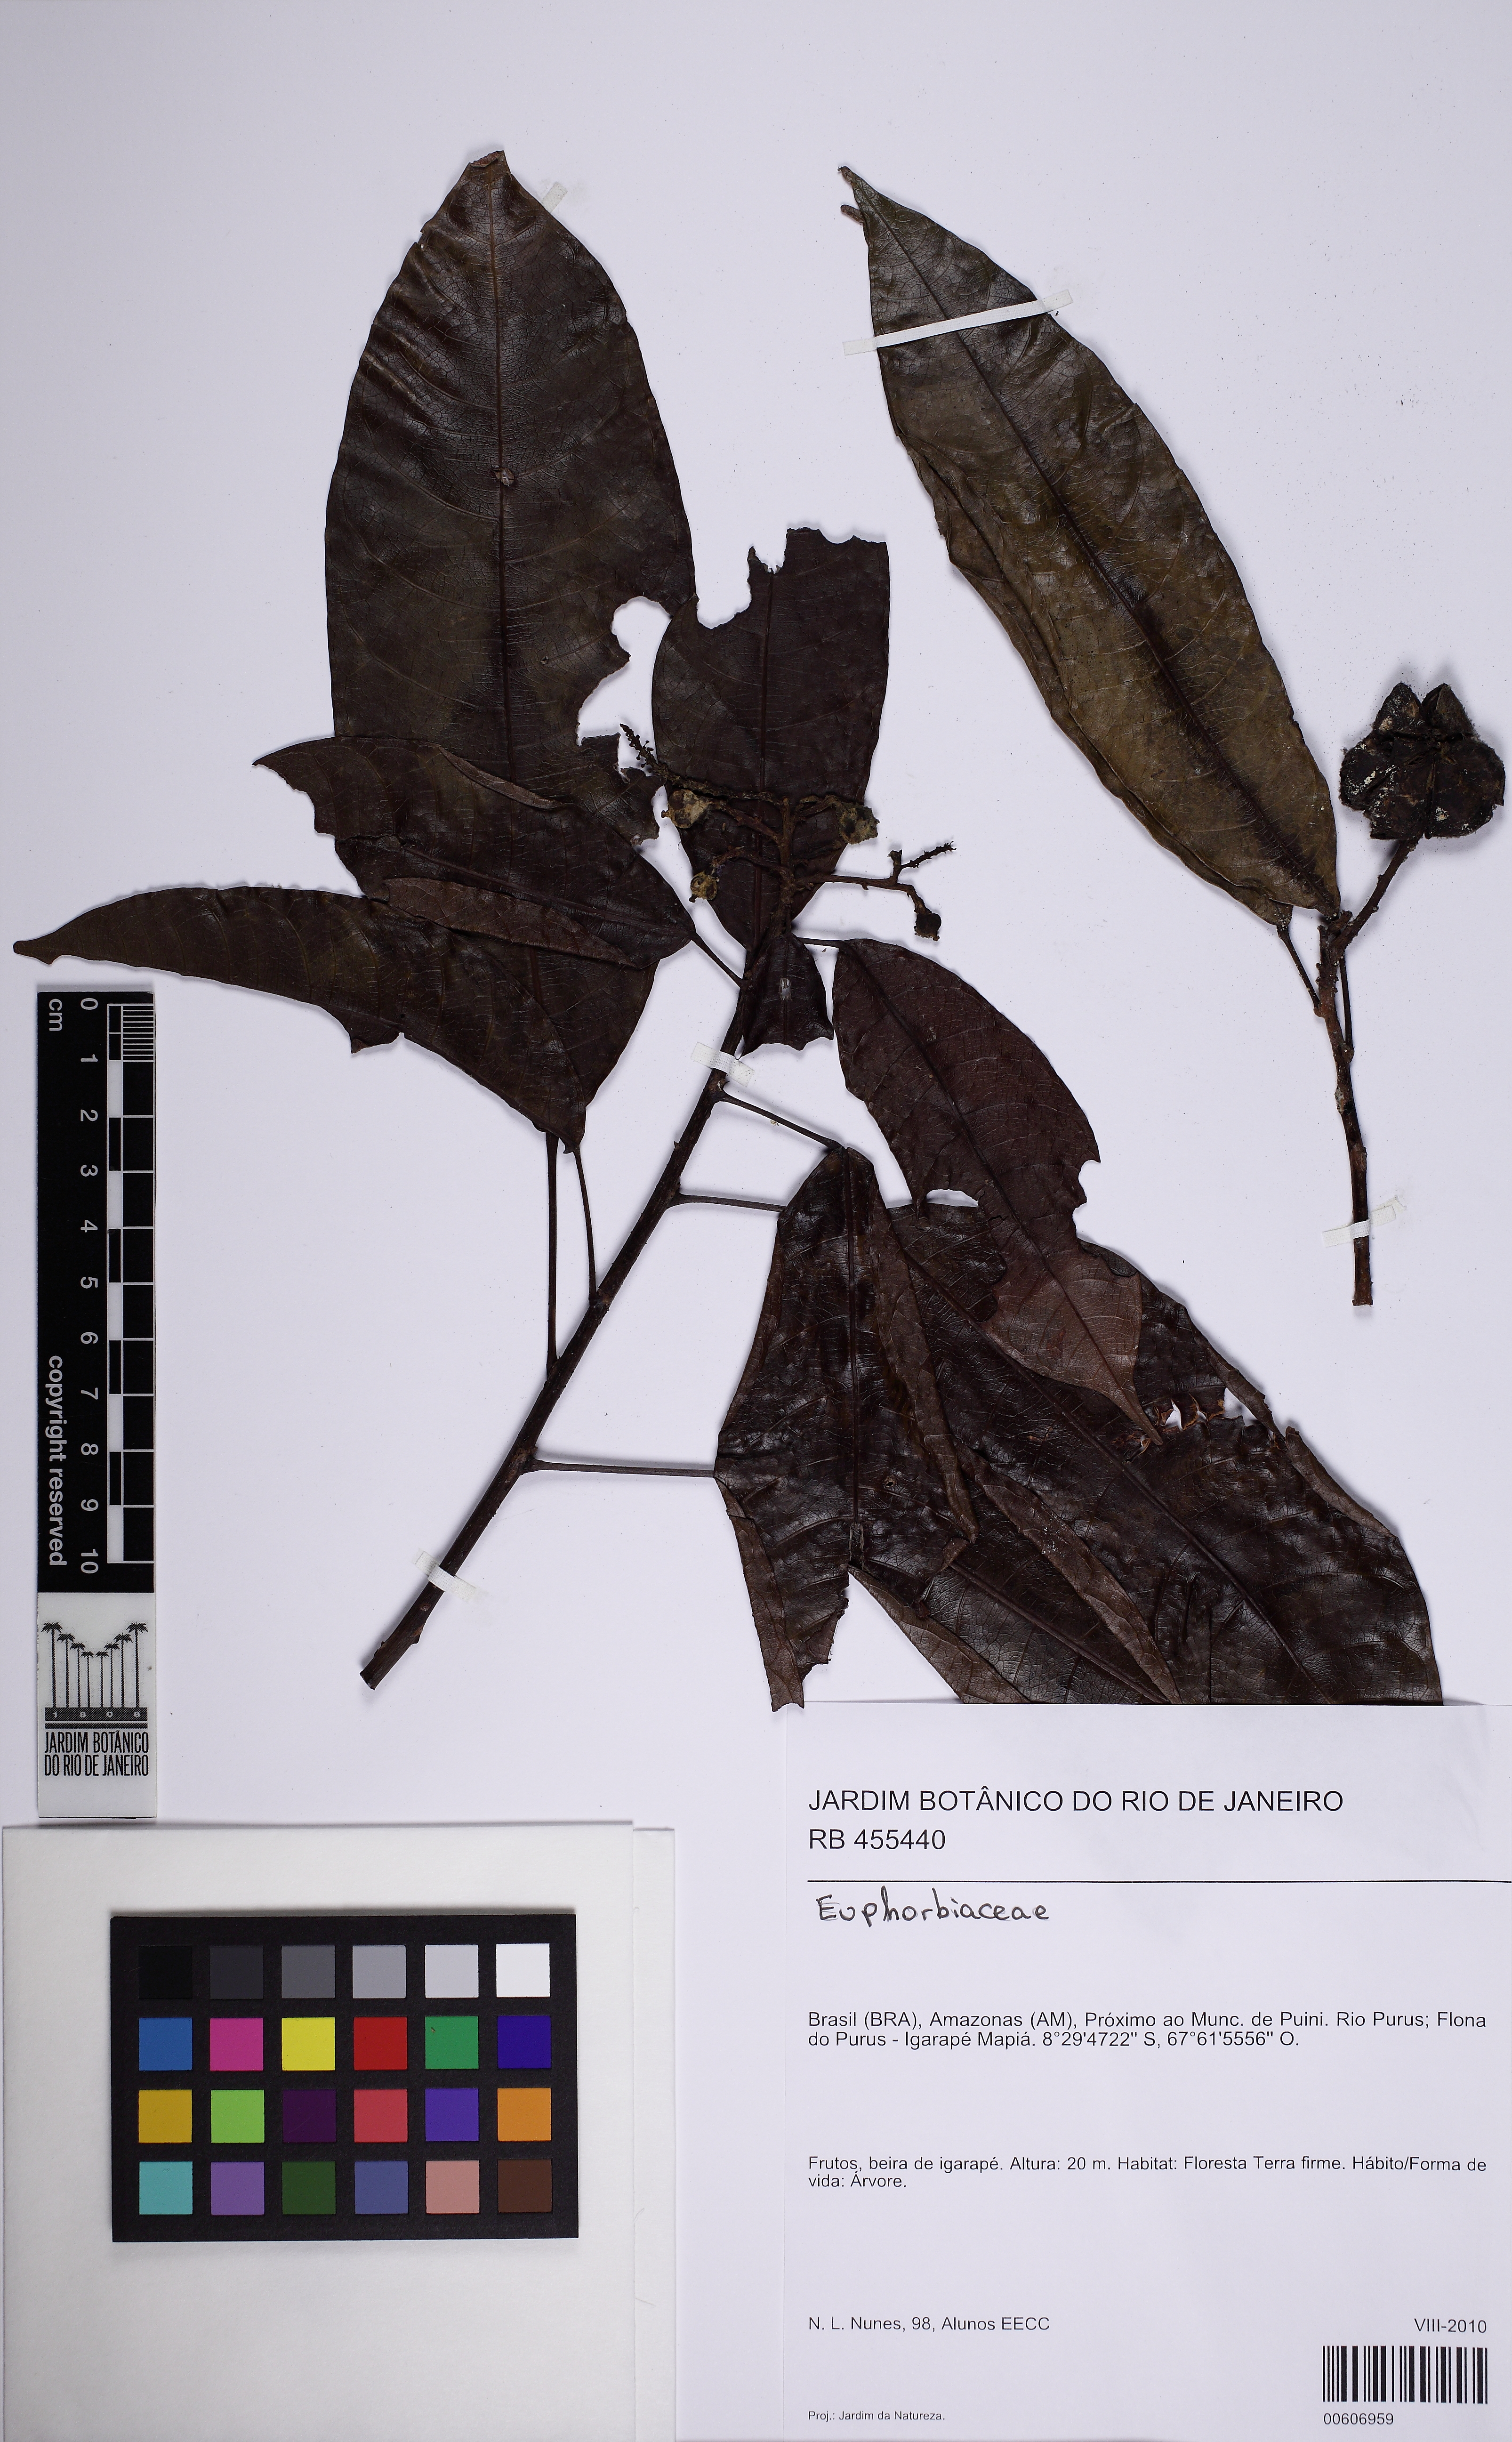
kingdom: Plantae
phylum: Tracheophyta
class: Magnoliopsida
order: Malpighiales
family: Euphorbiaceae
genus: Senefeldera
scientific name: Senefeldera
